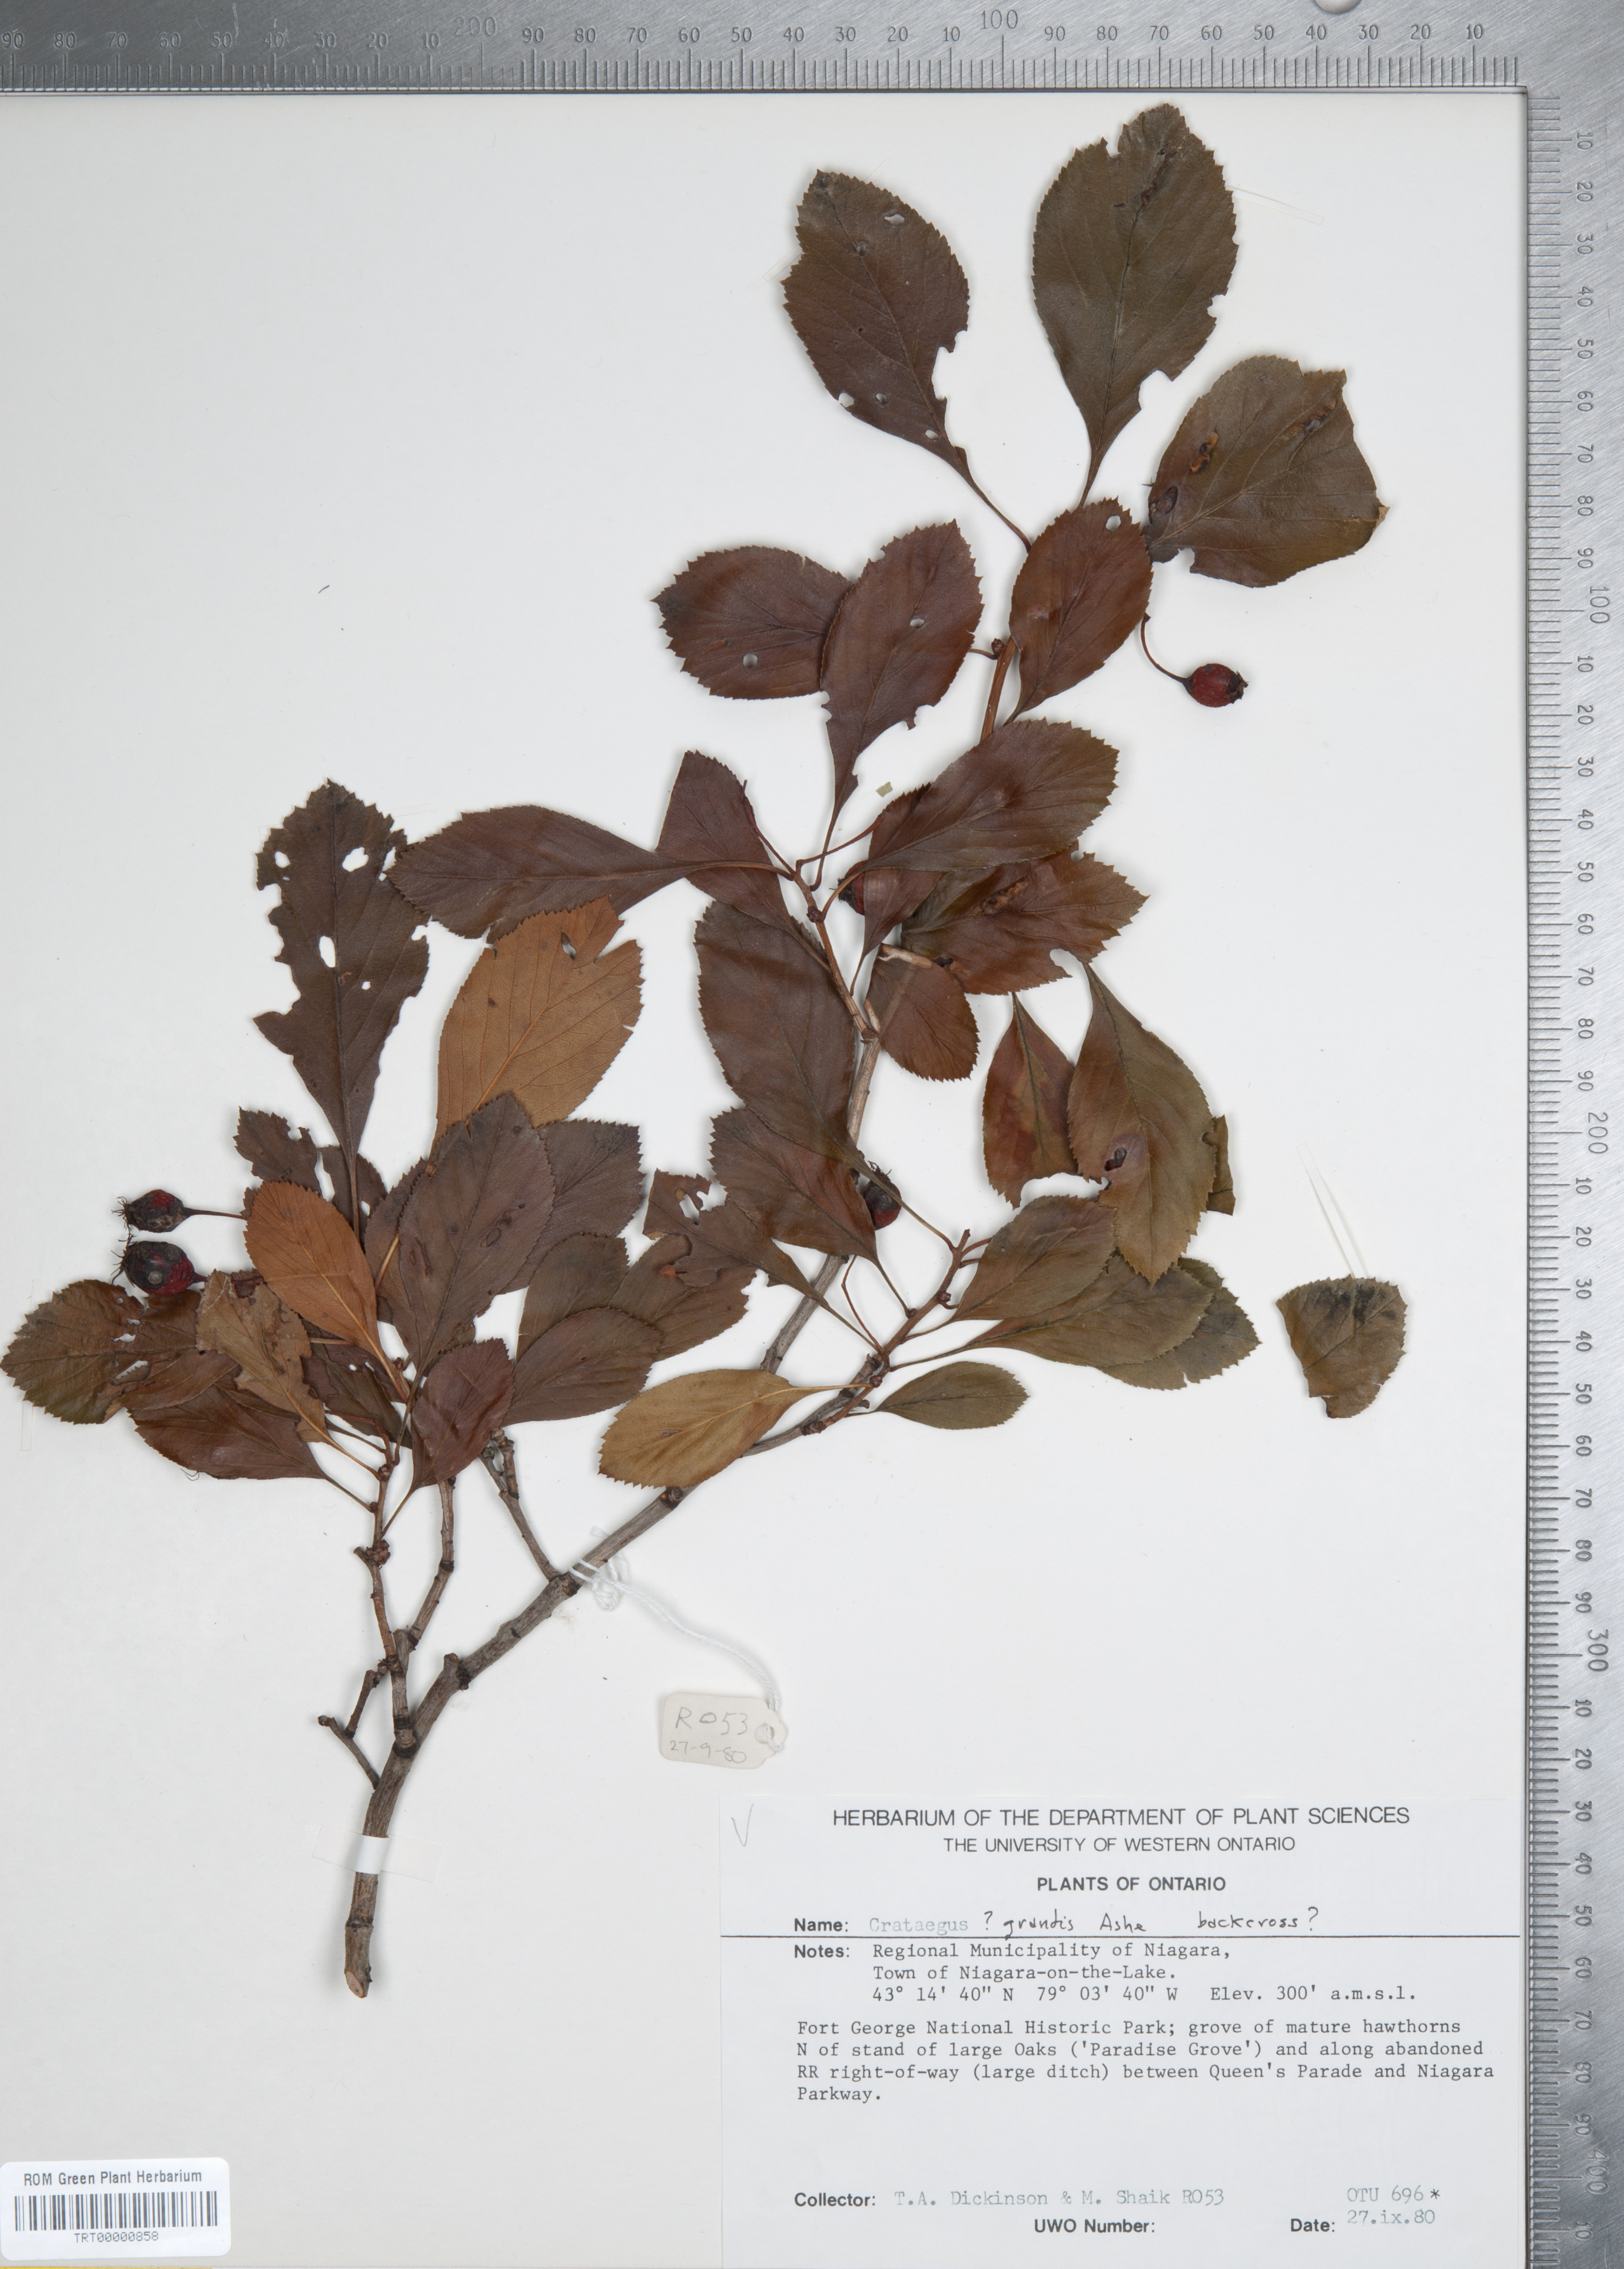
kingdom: Plantae
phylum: Tracheophyta
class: Magnoliopsida
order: Rosales
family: Rosaceae
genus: Crataegus
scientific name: Crataegus disperma
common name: Spreading hawthorn
